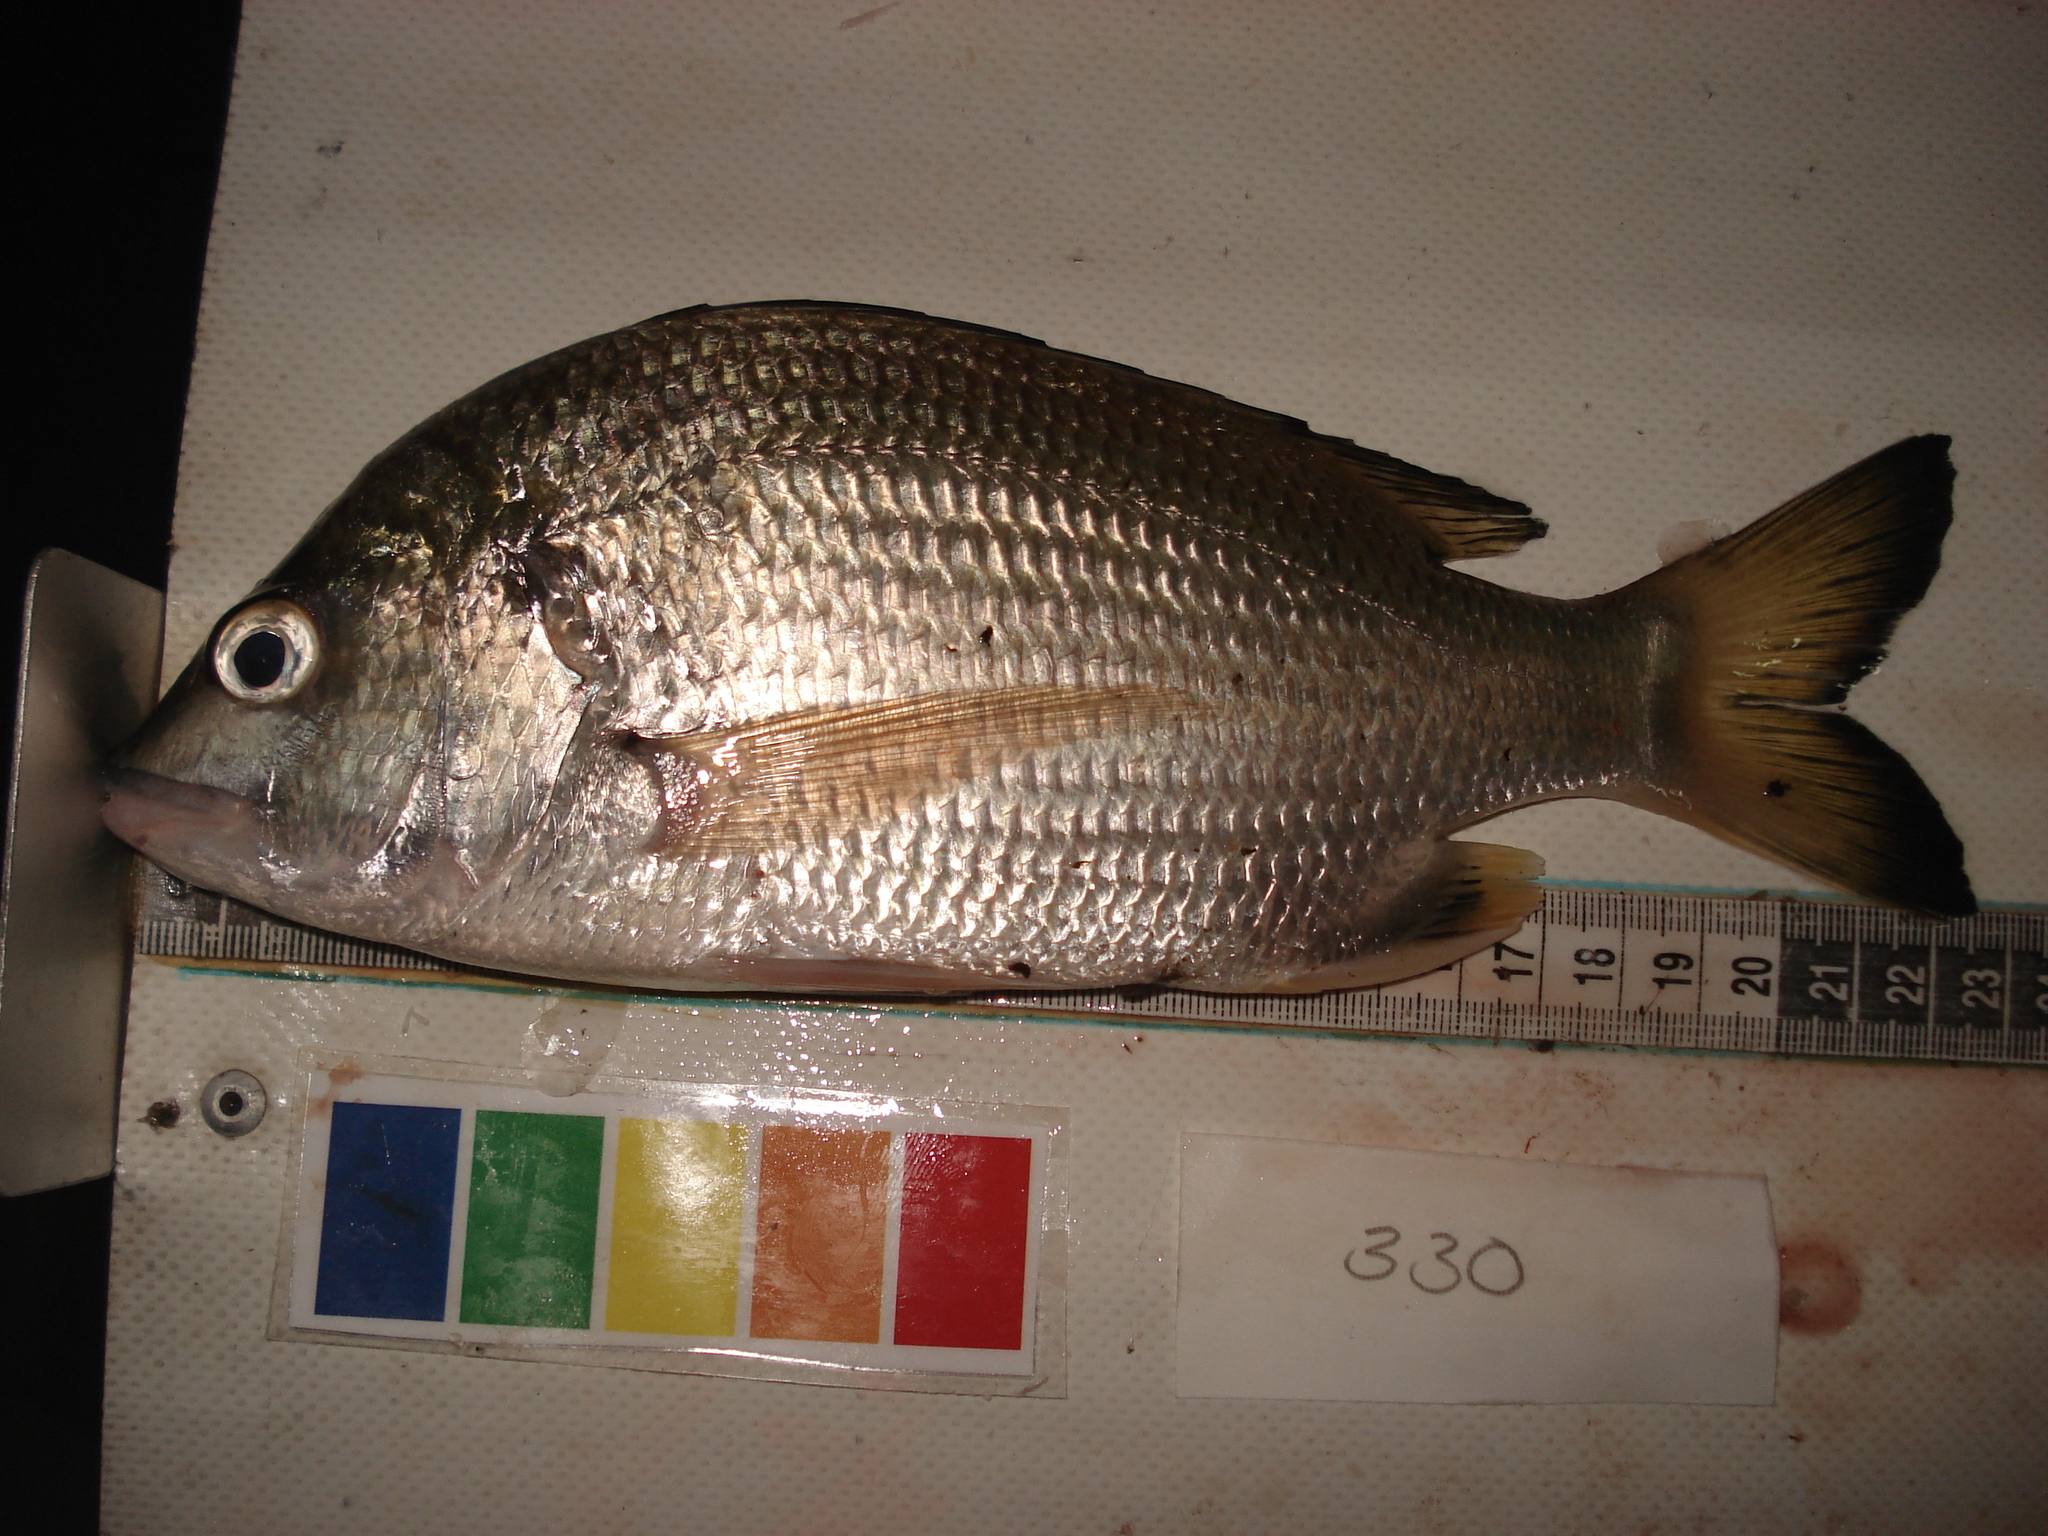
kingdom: Animalia
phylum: Chordata
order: Perciformes
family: Sparidae
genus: Acanthopagrus
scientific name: Acanthopagrus berda
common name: Picnic seabream
